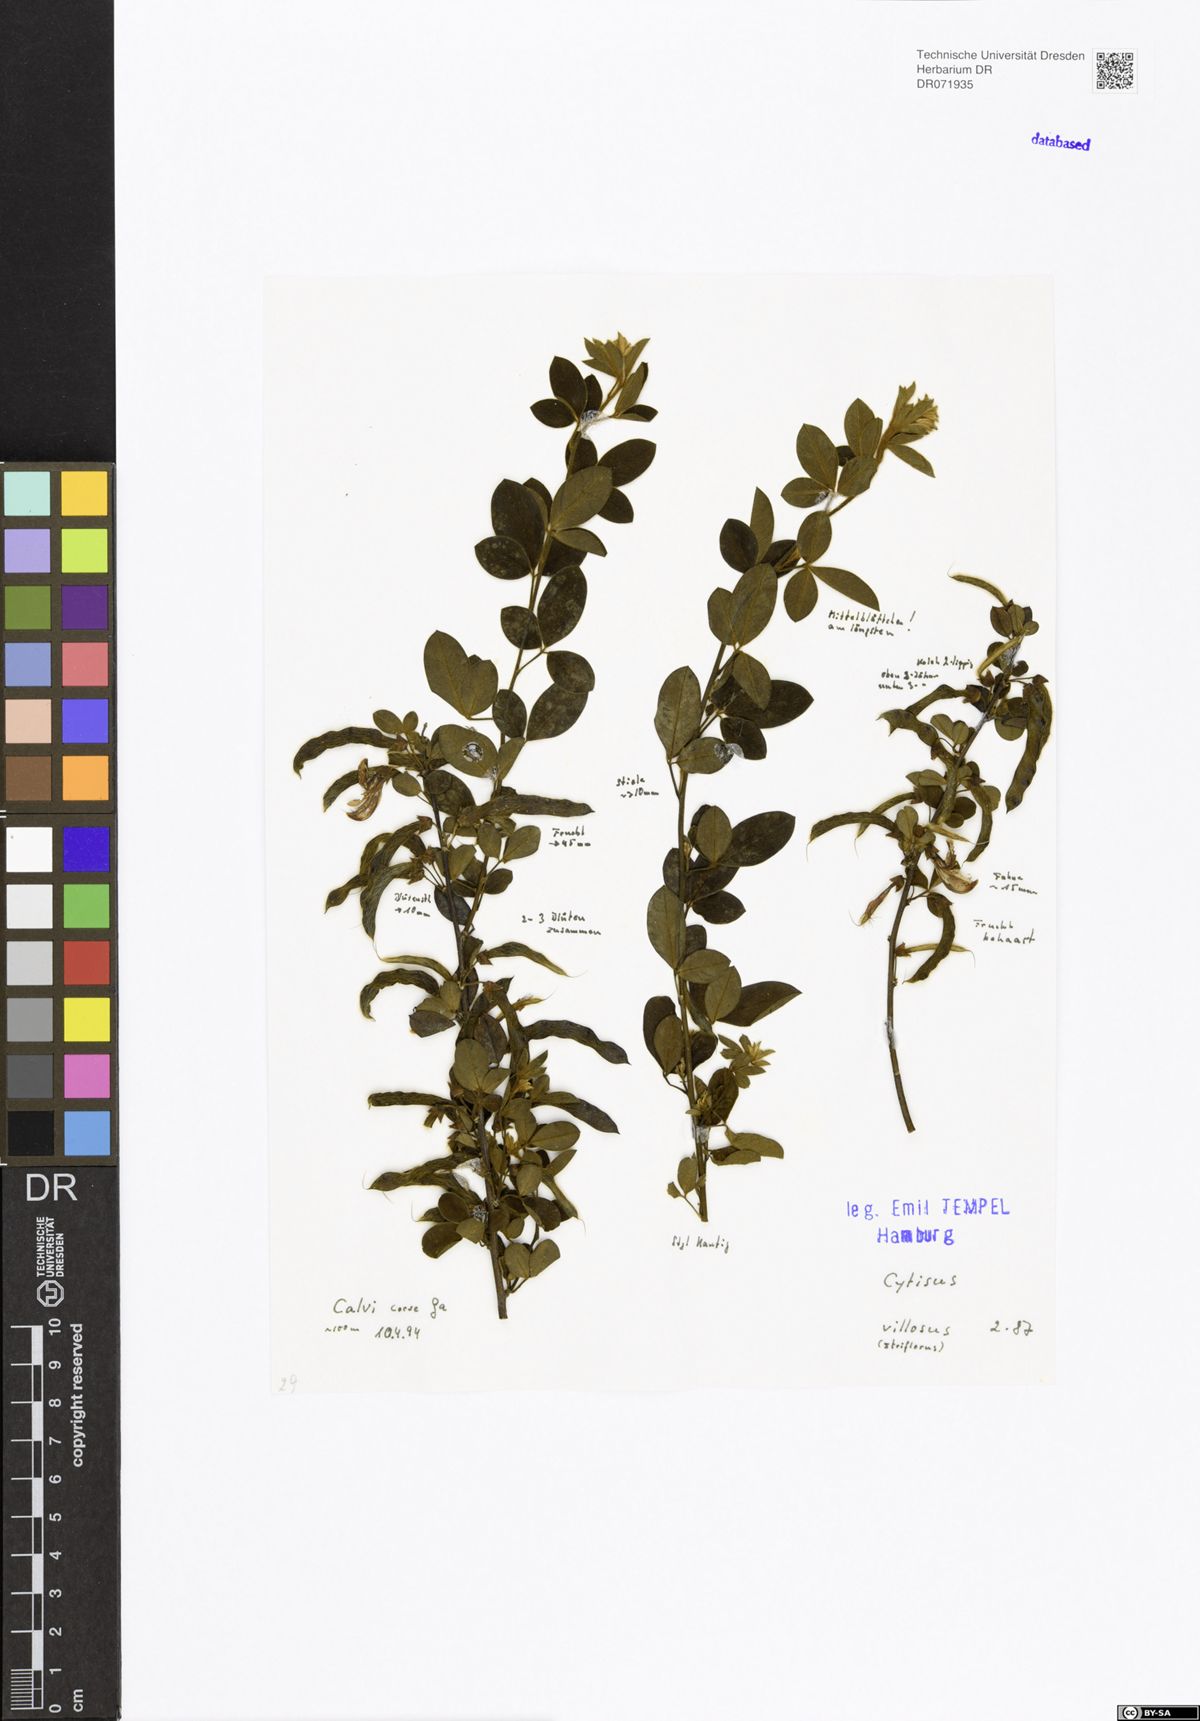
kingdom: Plantae
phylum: Tracheophyta
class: Magnoliopsida
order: Fabales
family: Fabaceae
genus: Cytisus
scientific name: Cytisus villosus
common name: Hairybroom
